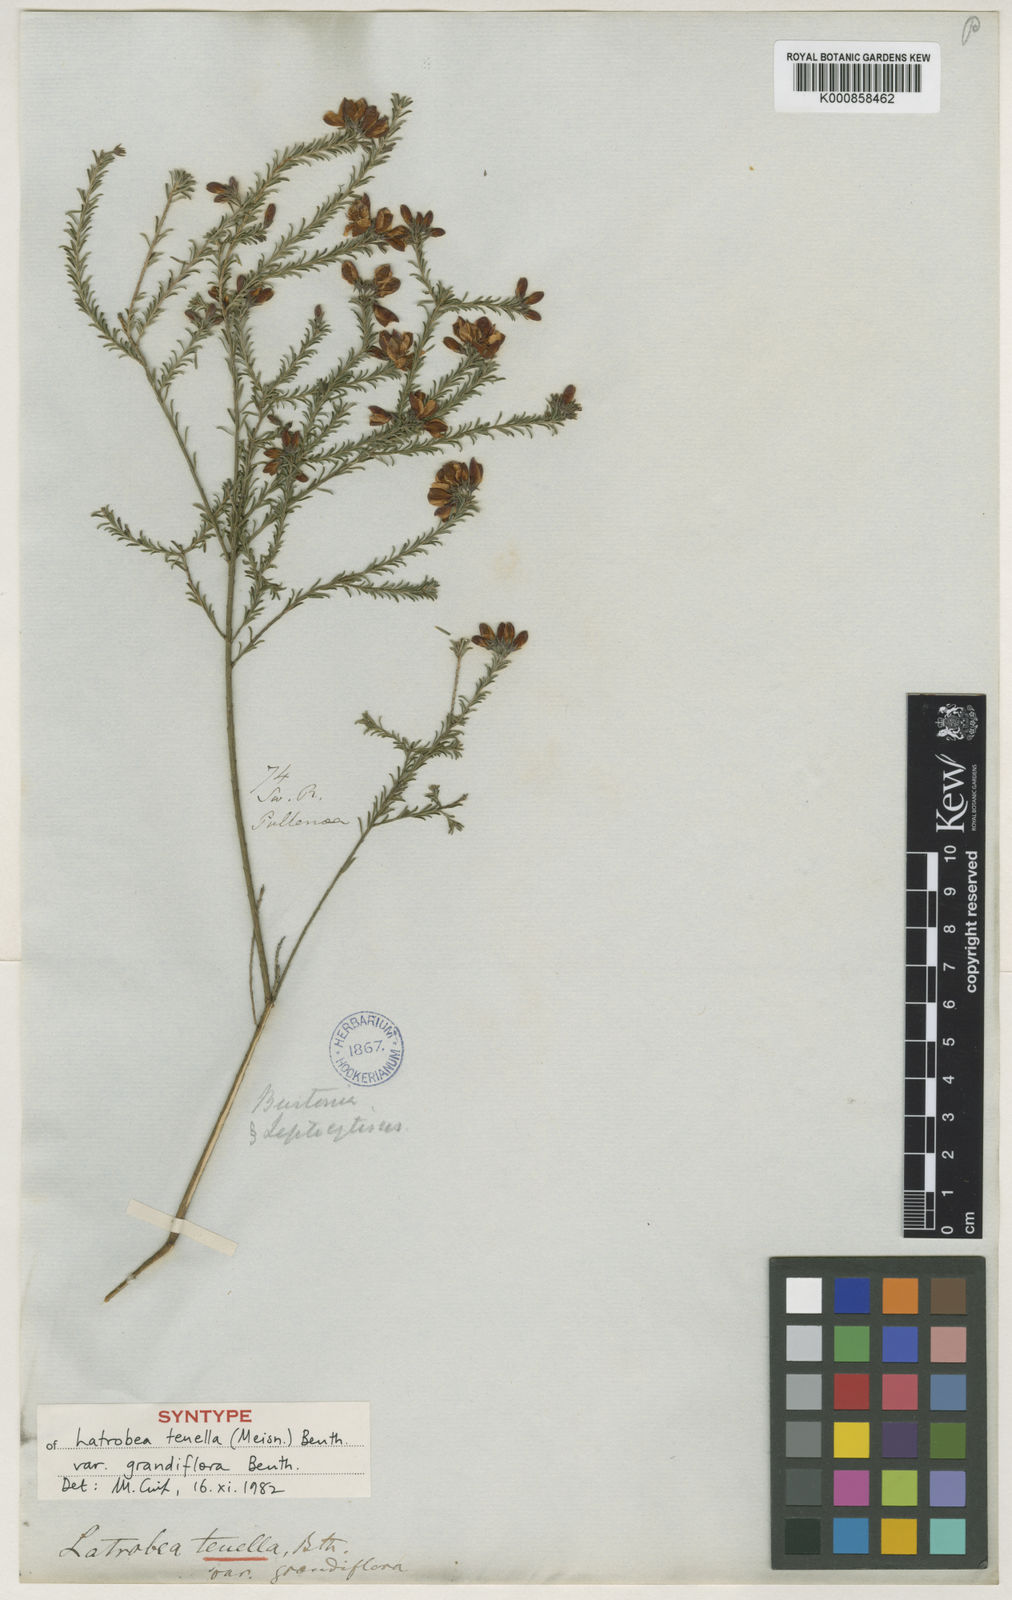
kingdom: Plantae
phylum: Tracheophyta
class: Magnoliopsida
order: Fabales
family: Fabaceae
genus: Latrobea
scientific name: Latrobea tenella
